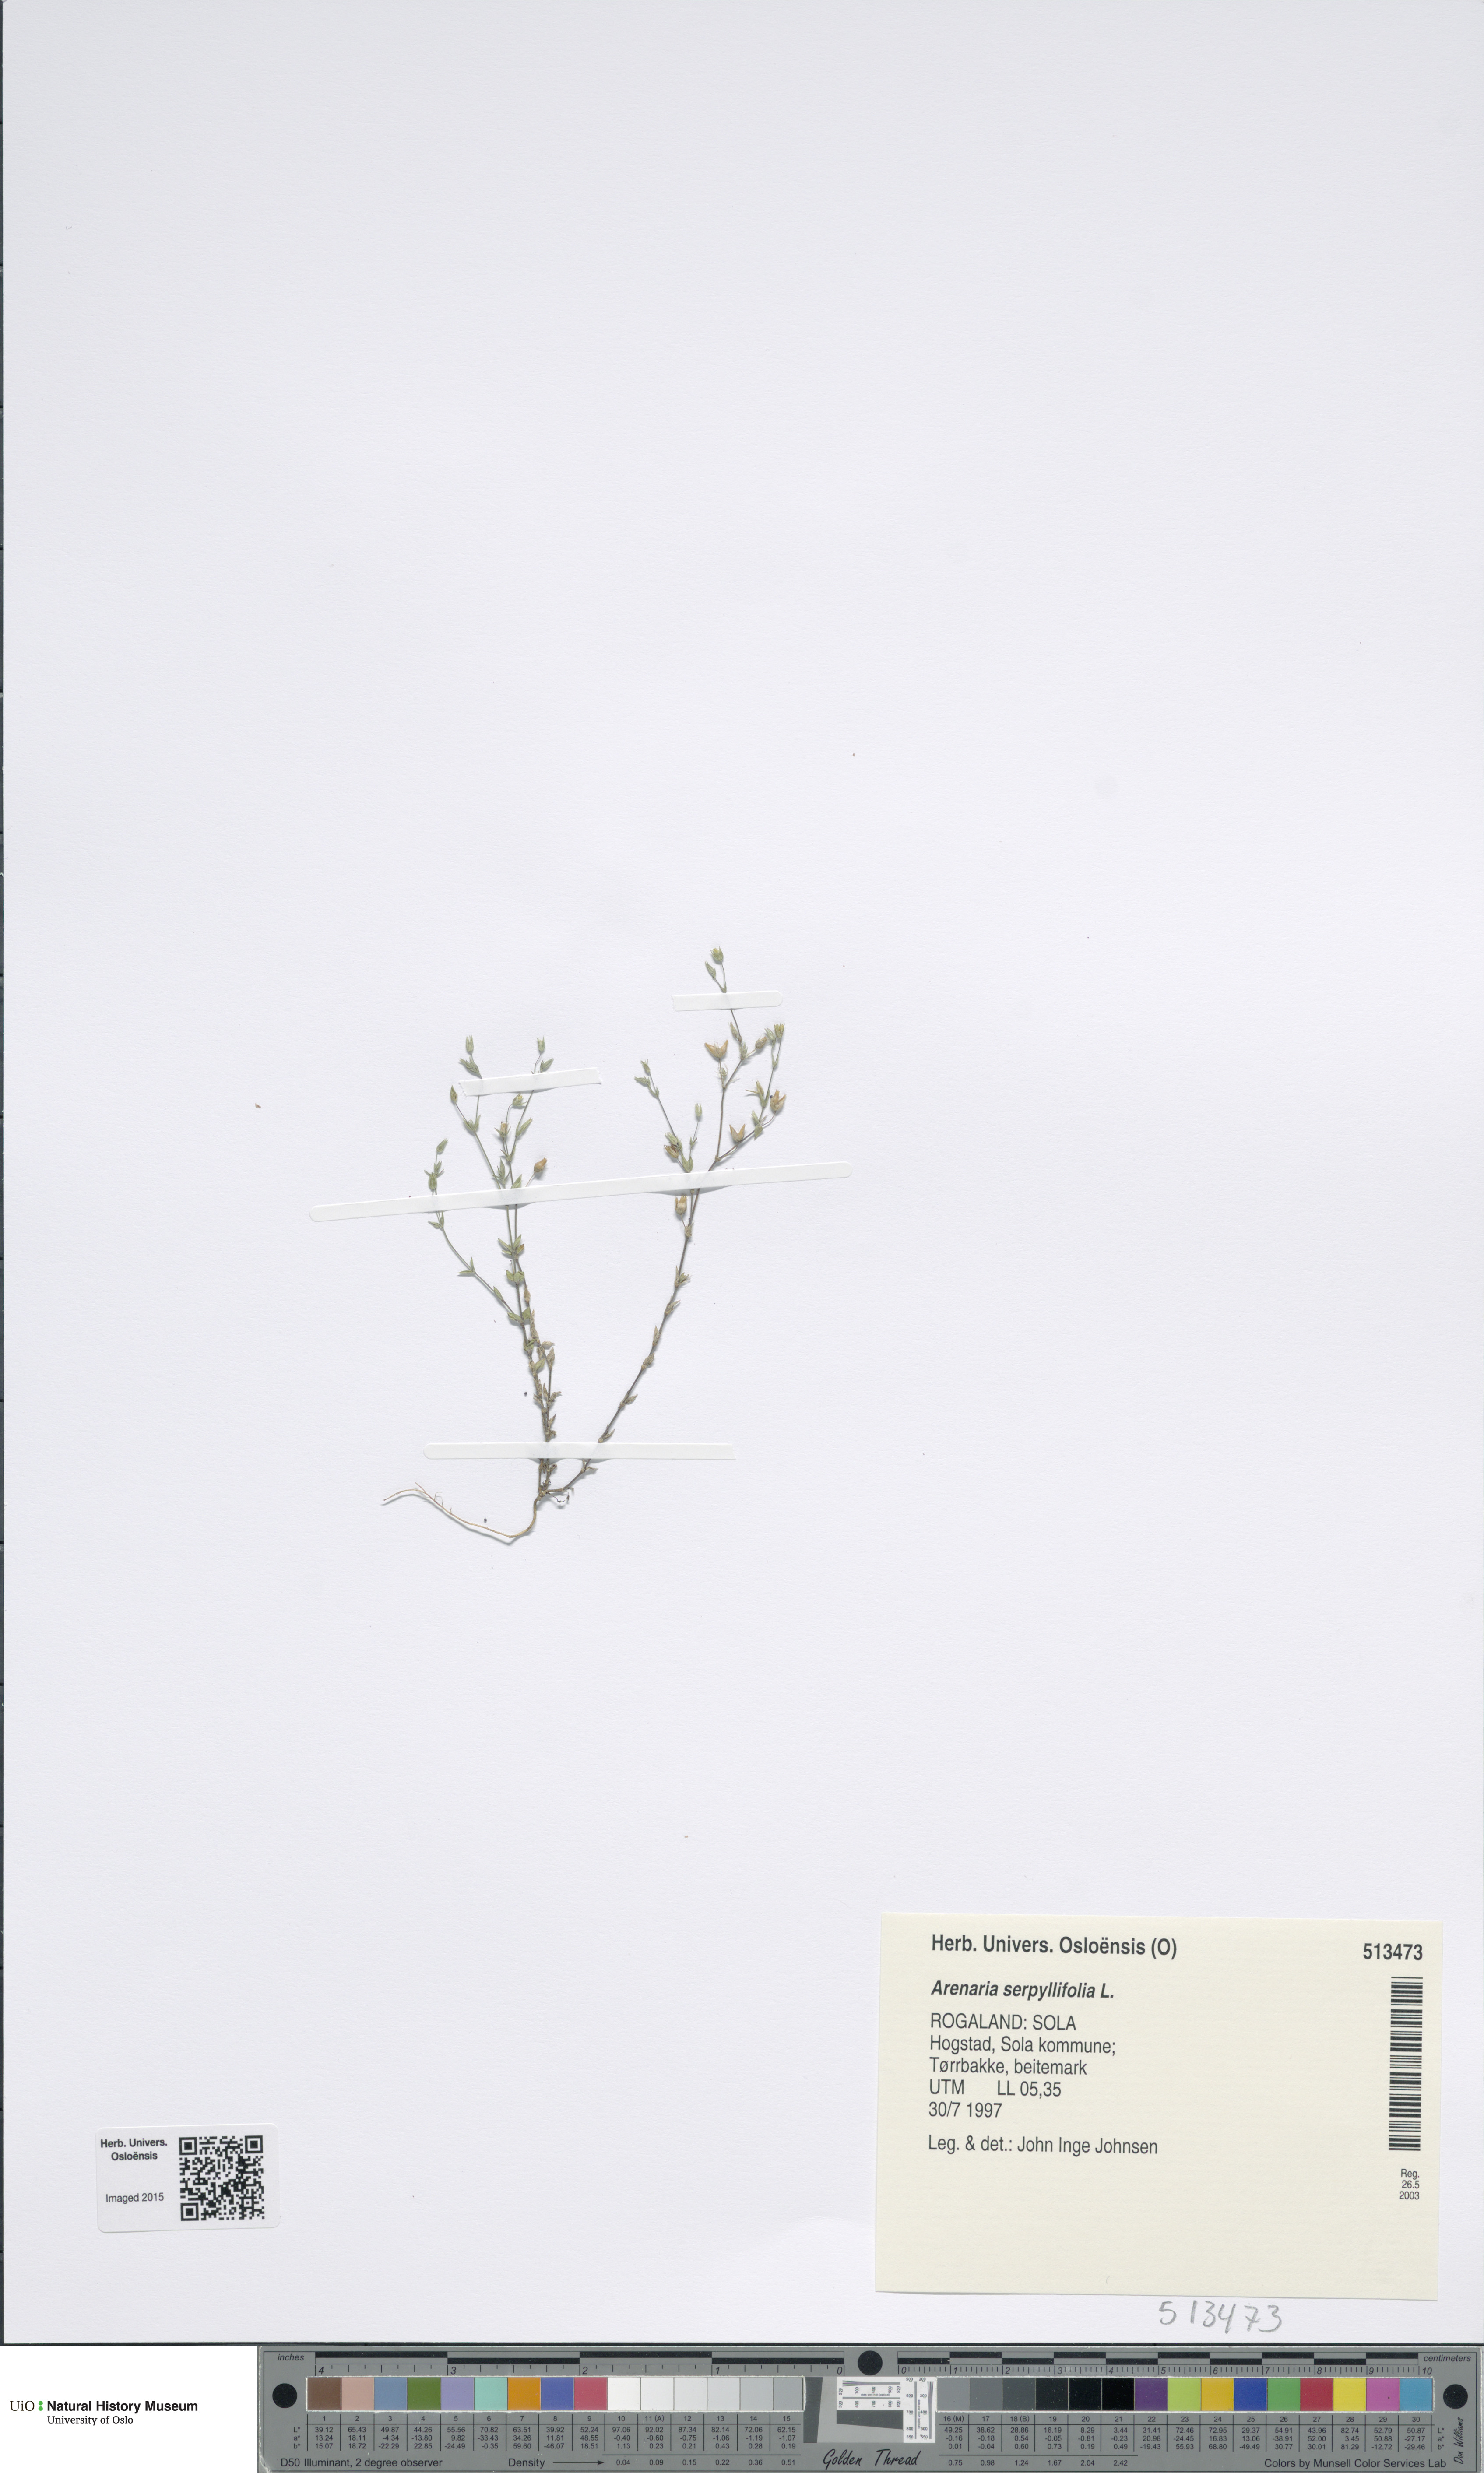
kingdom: Plantae
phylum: Tracheophyta
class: Magnoliopsida
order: Caryophyllales
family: Caryophyllaceae
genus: Arenaria
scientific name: Arenaria serpyllifolia
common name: Thyme-leaved sandwort
